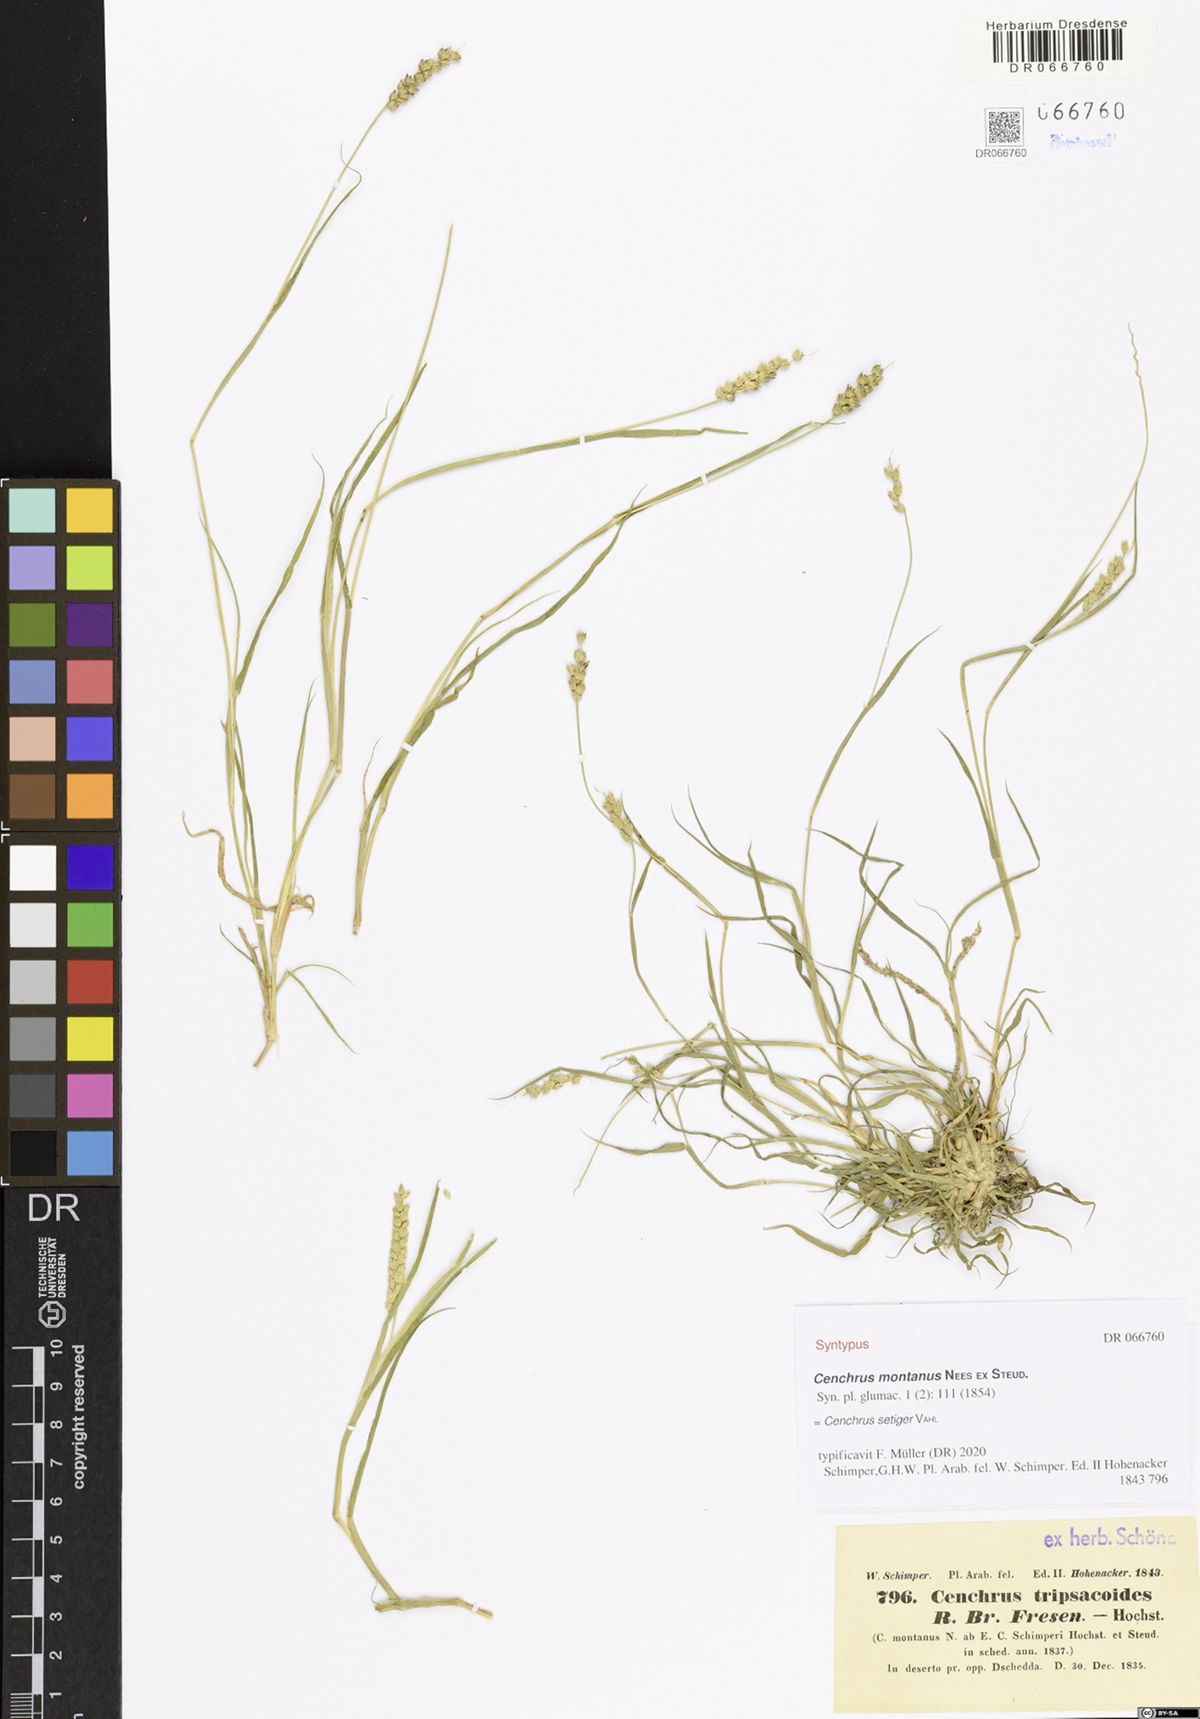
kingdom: Plantae
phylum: Tracheophyta
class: Liliopsida
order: Poales
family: Poaceae
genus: Cenchrus
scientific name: Cenchrus setigerus
